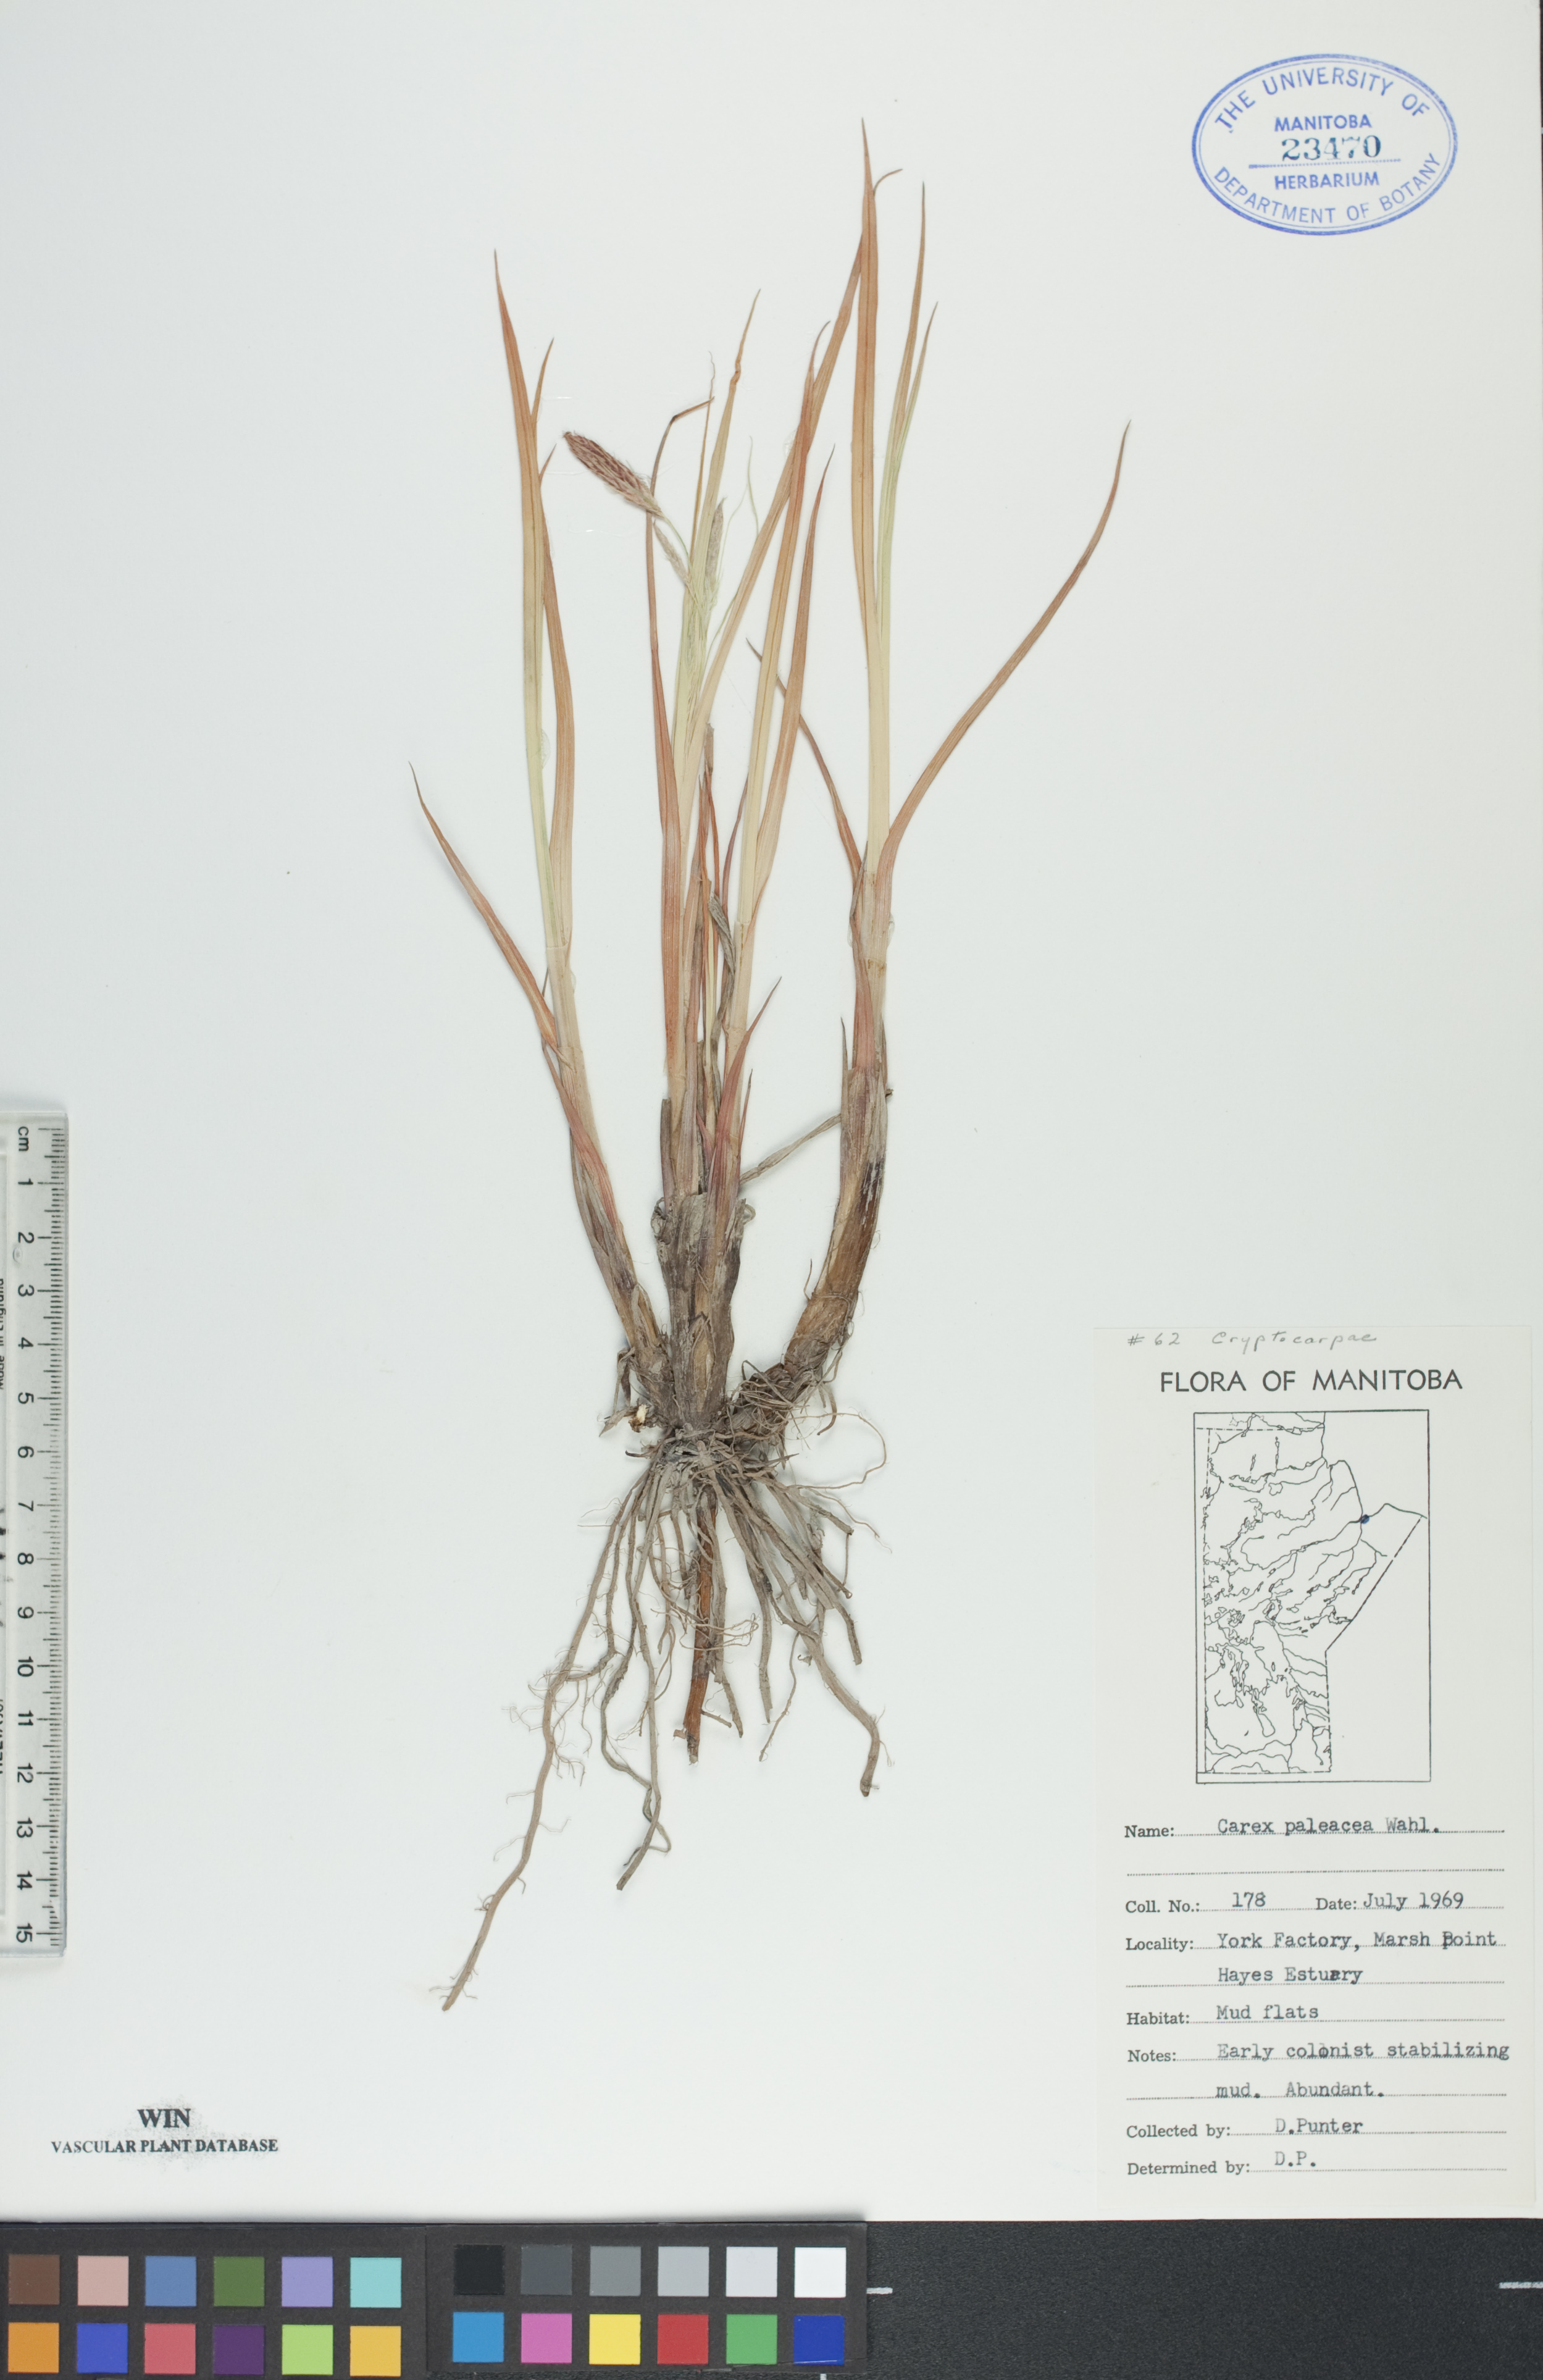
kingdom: Plantae
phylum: Tracheophyta
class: Liliopsida
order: Poales
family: Cyperaceae
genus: Carex
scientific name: Carex paleacea
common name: Chaffy sedge
